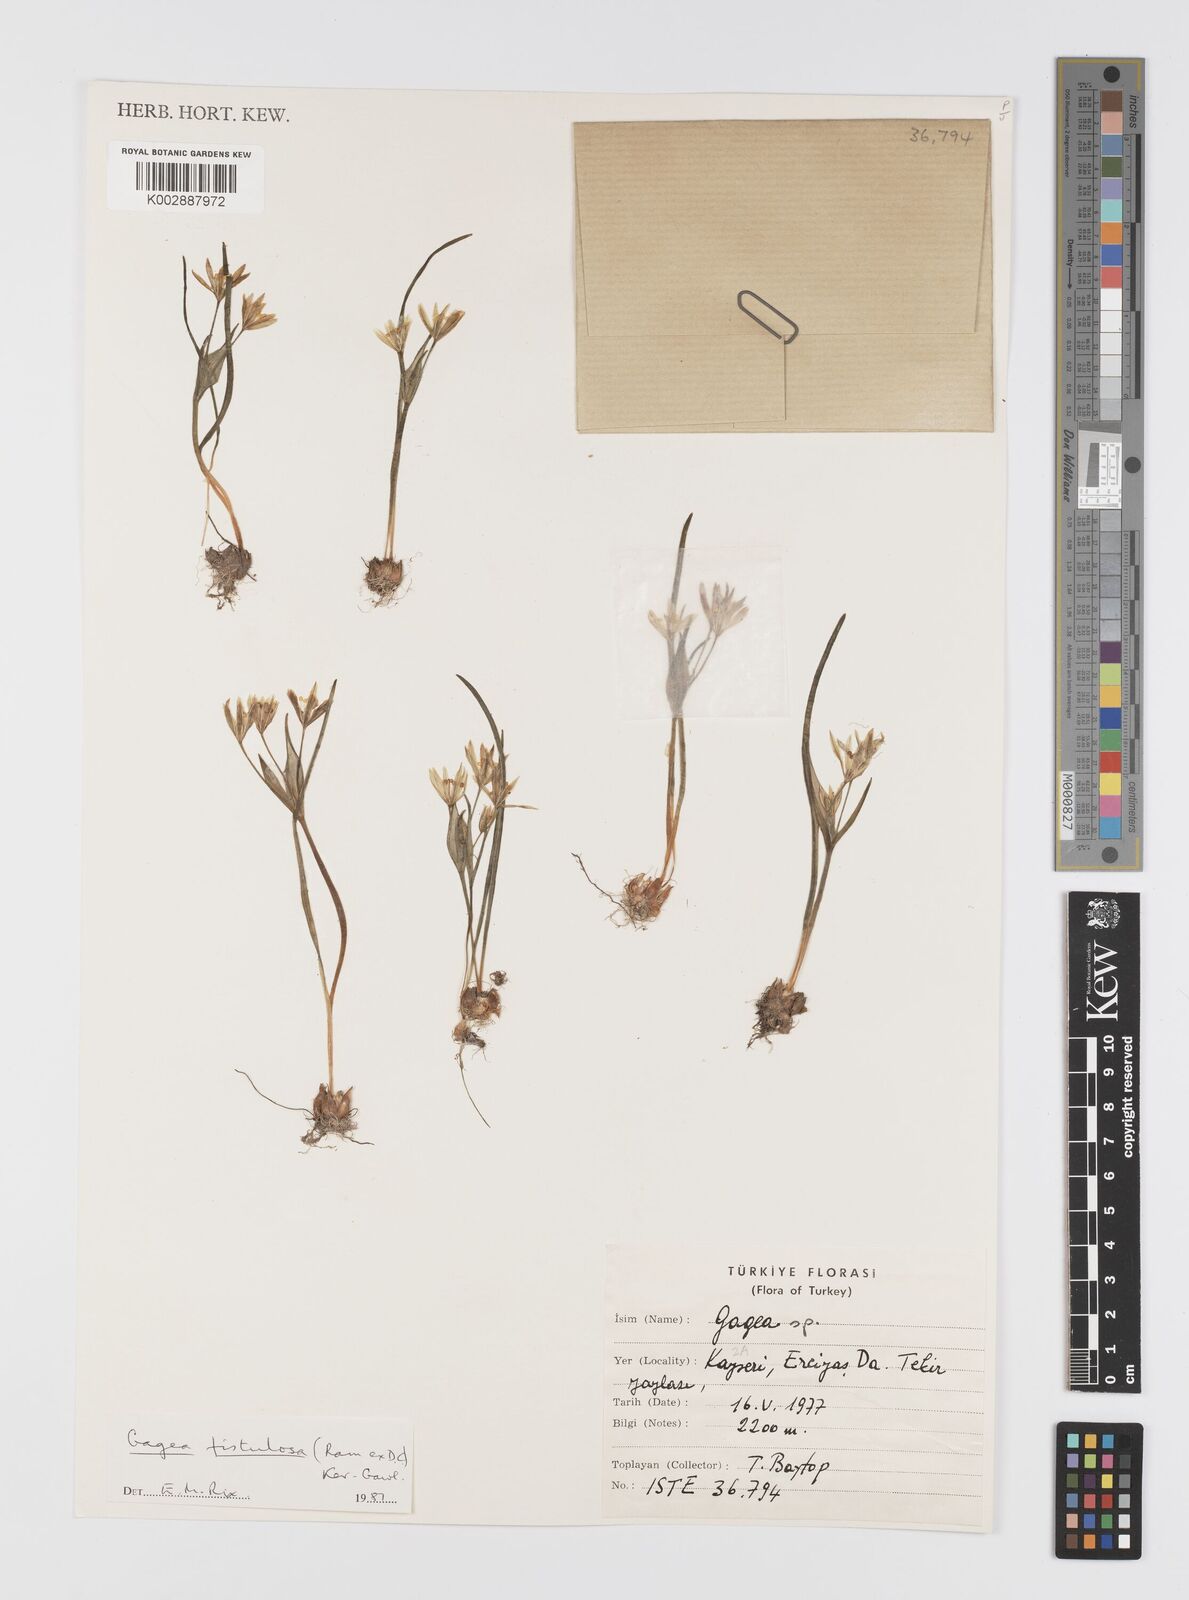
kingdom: Plantae
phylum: Tracheophyta
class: Liliopsida
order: Liliales
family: Liliaceae
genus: Gagea
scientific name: Gagea bohemica
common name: Early star-of-bethlehem
